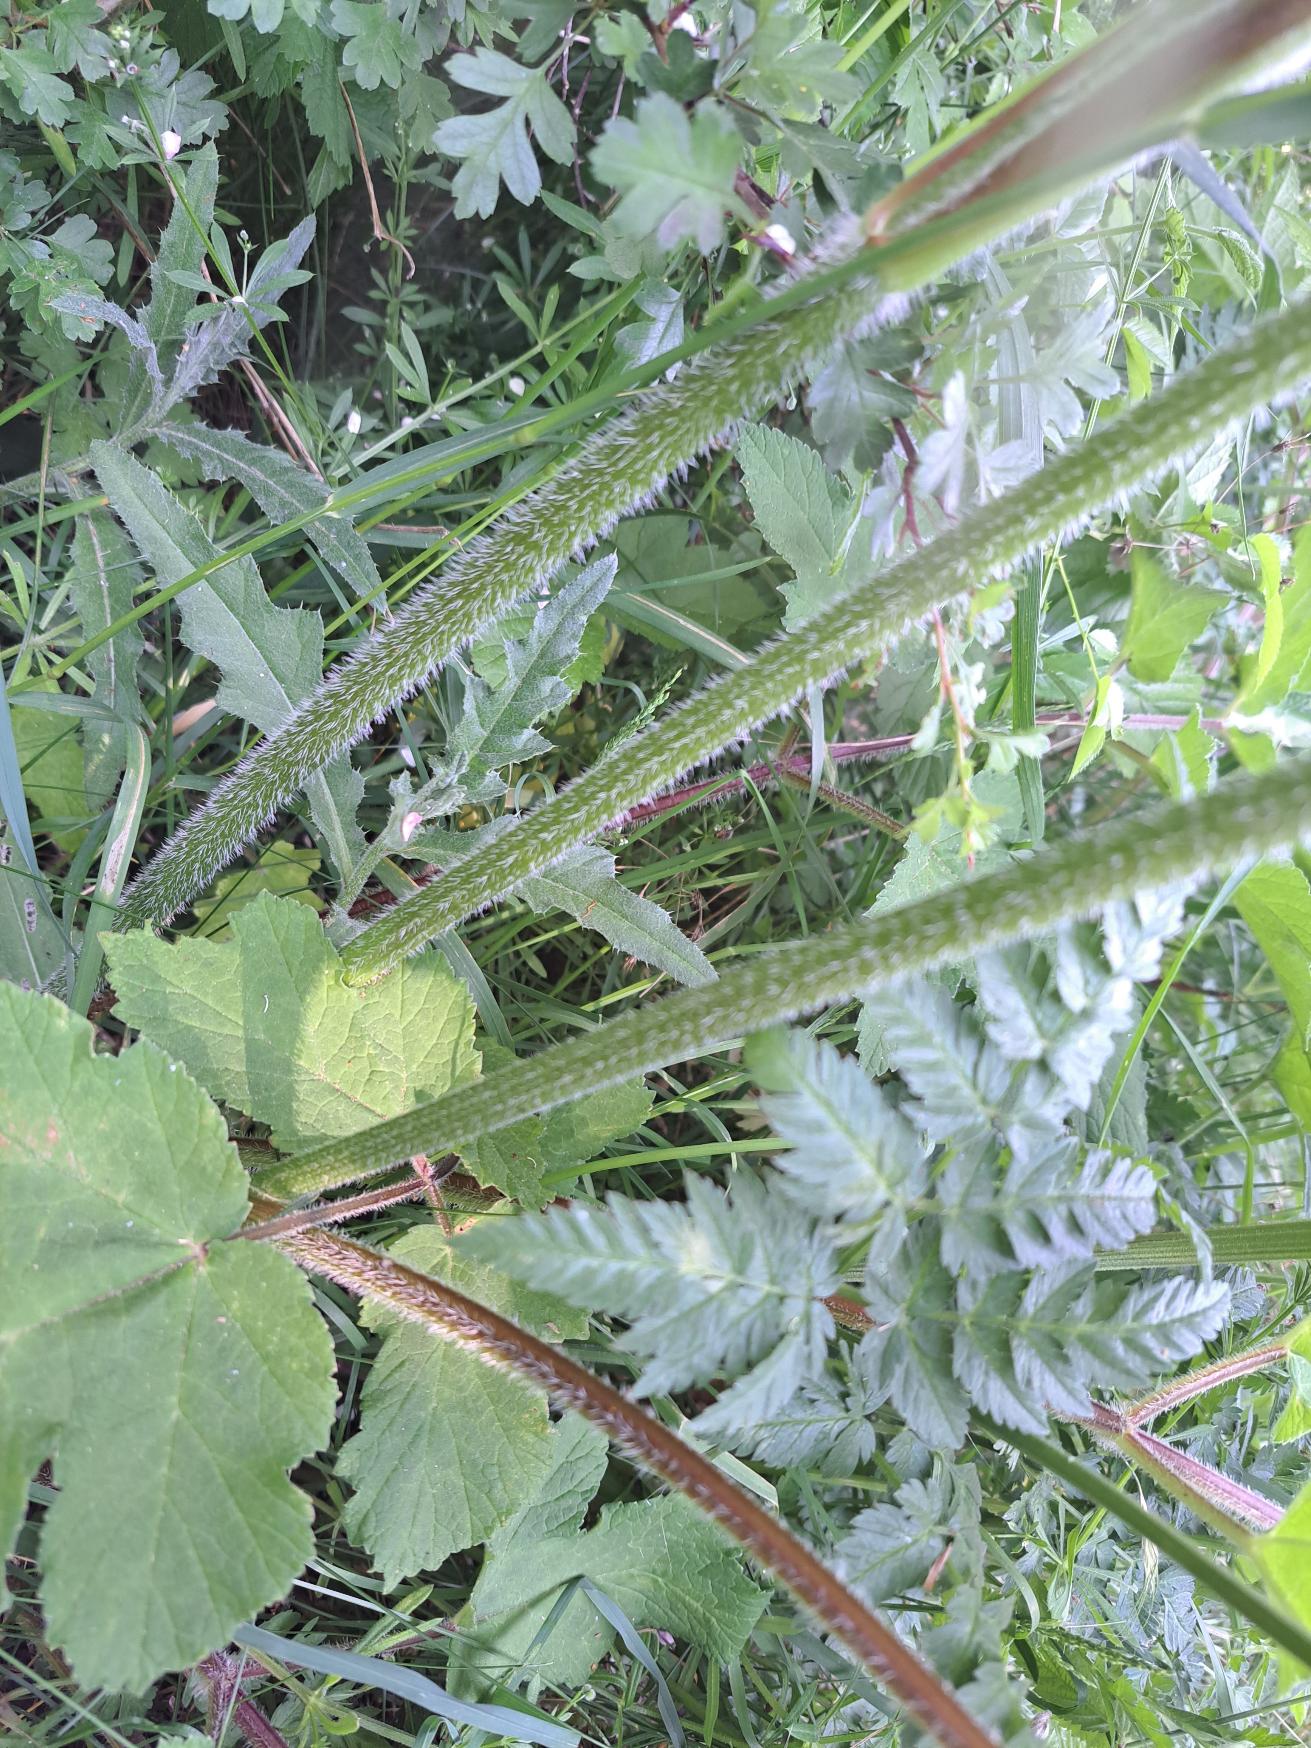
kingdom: Plantae
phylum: Tracheophyta
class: Magnoliopsida
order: Apiales
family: Apiaceae
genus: Heracleum
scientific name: Heracleum sphondylium
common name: Almindelig bjørneklo
